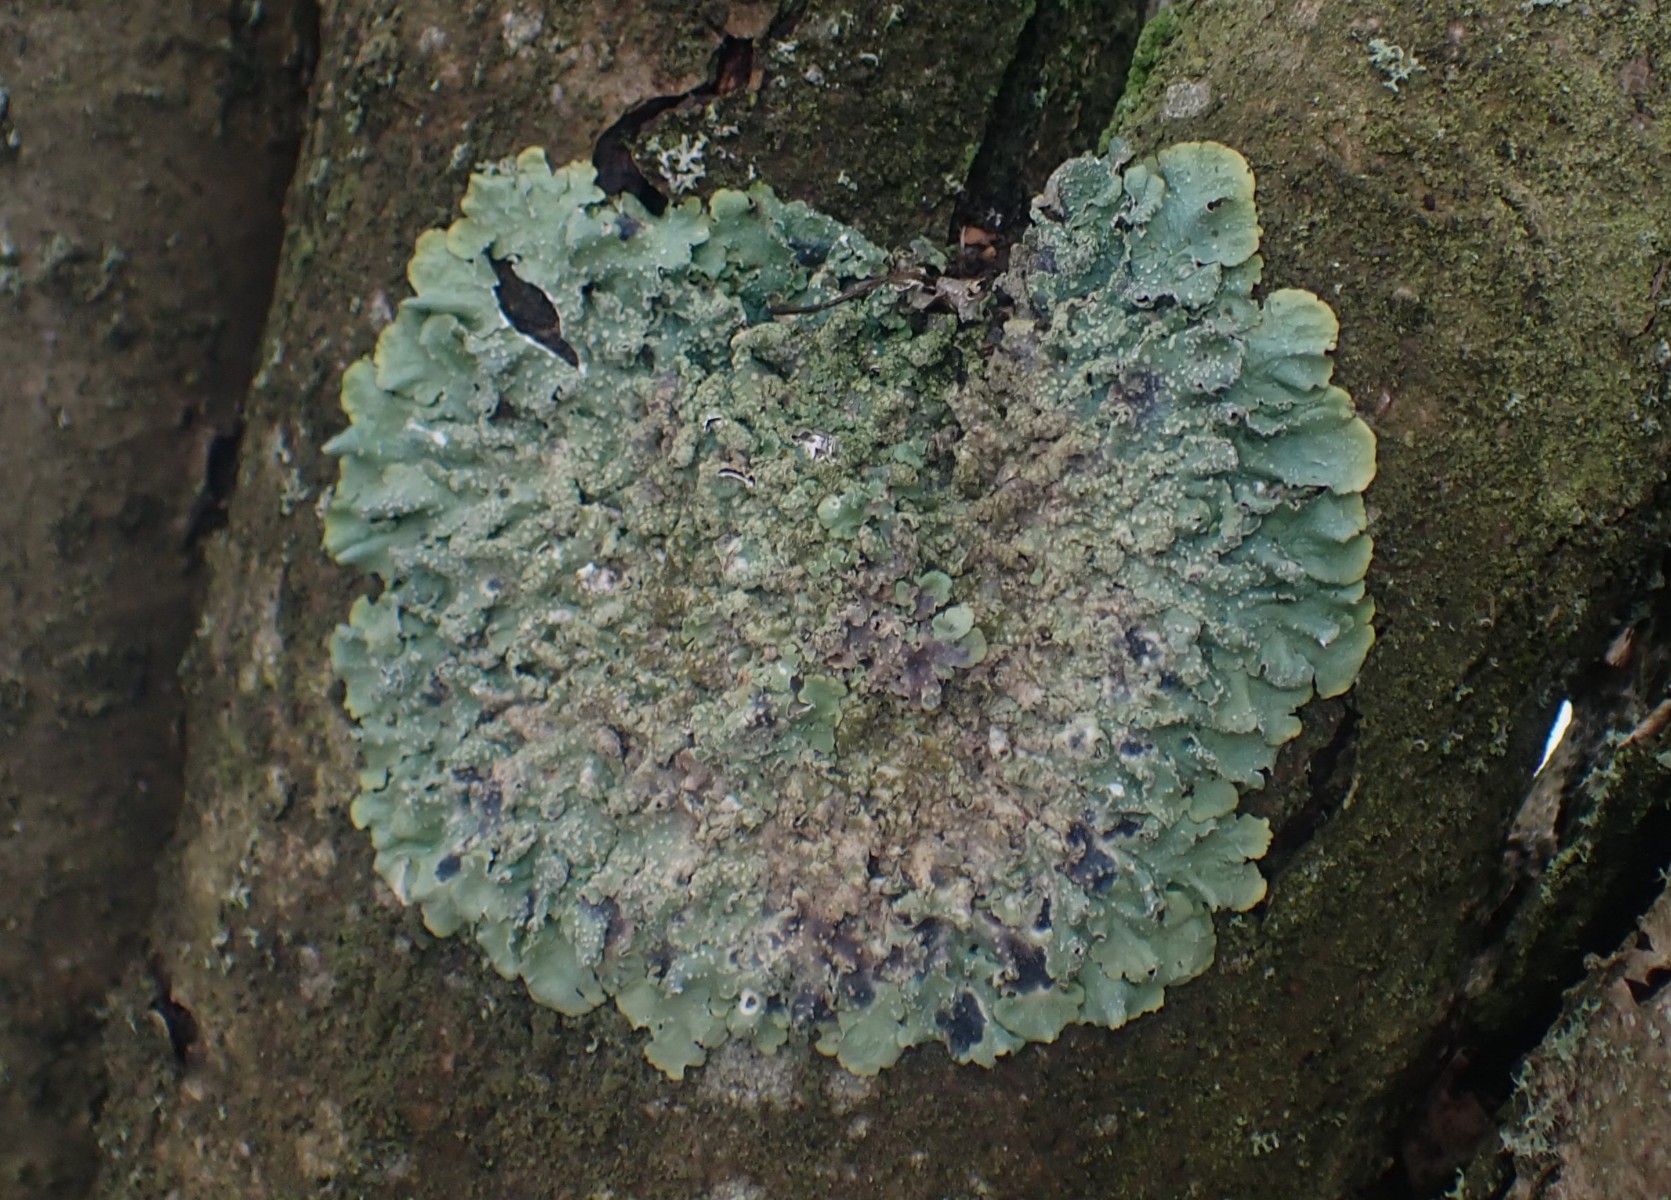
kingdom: Fungi
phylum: Ascomycota
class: Lecanoromycetes
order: Lecanorales
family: Parmeliaceae
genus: Punctelia
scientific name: Punctelia subrudecta
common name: punkt-skållav
